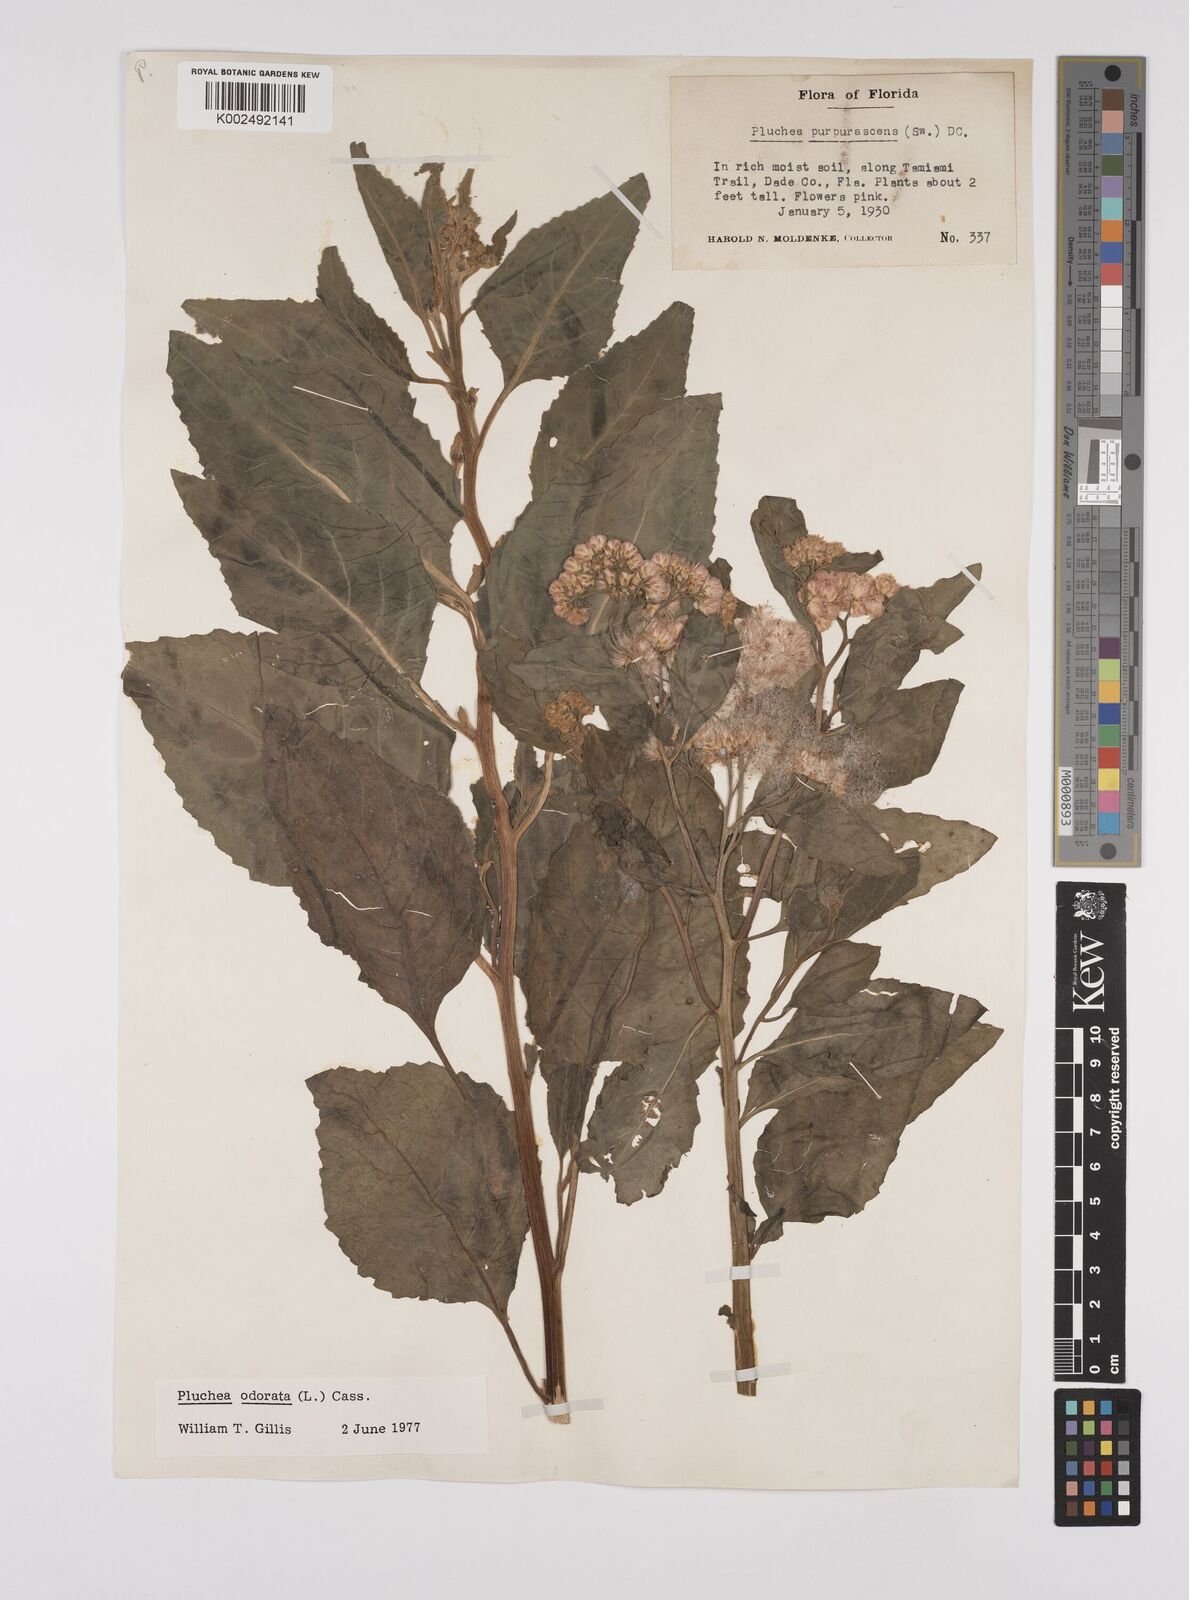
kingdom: Plantae
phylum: Tracheophyta
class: Magnoliopsida
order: Asterales
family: Asteraceae
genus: Pluchea
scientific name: Pluchea odorata
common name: Saltmarsh fleabane
